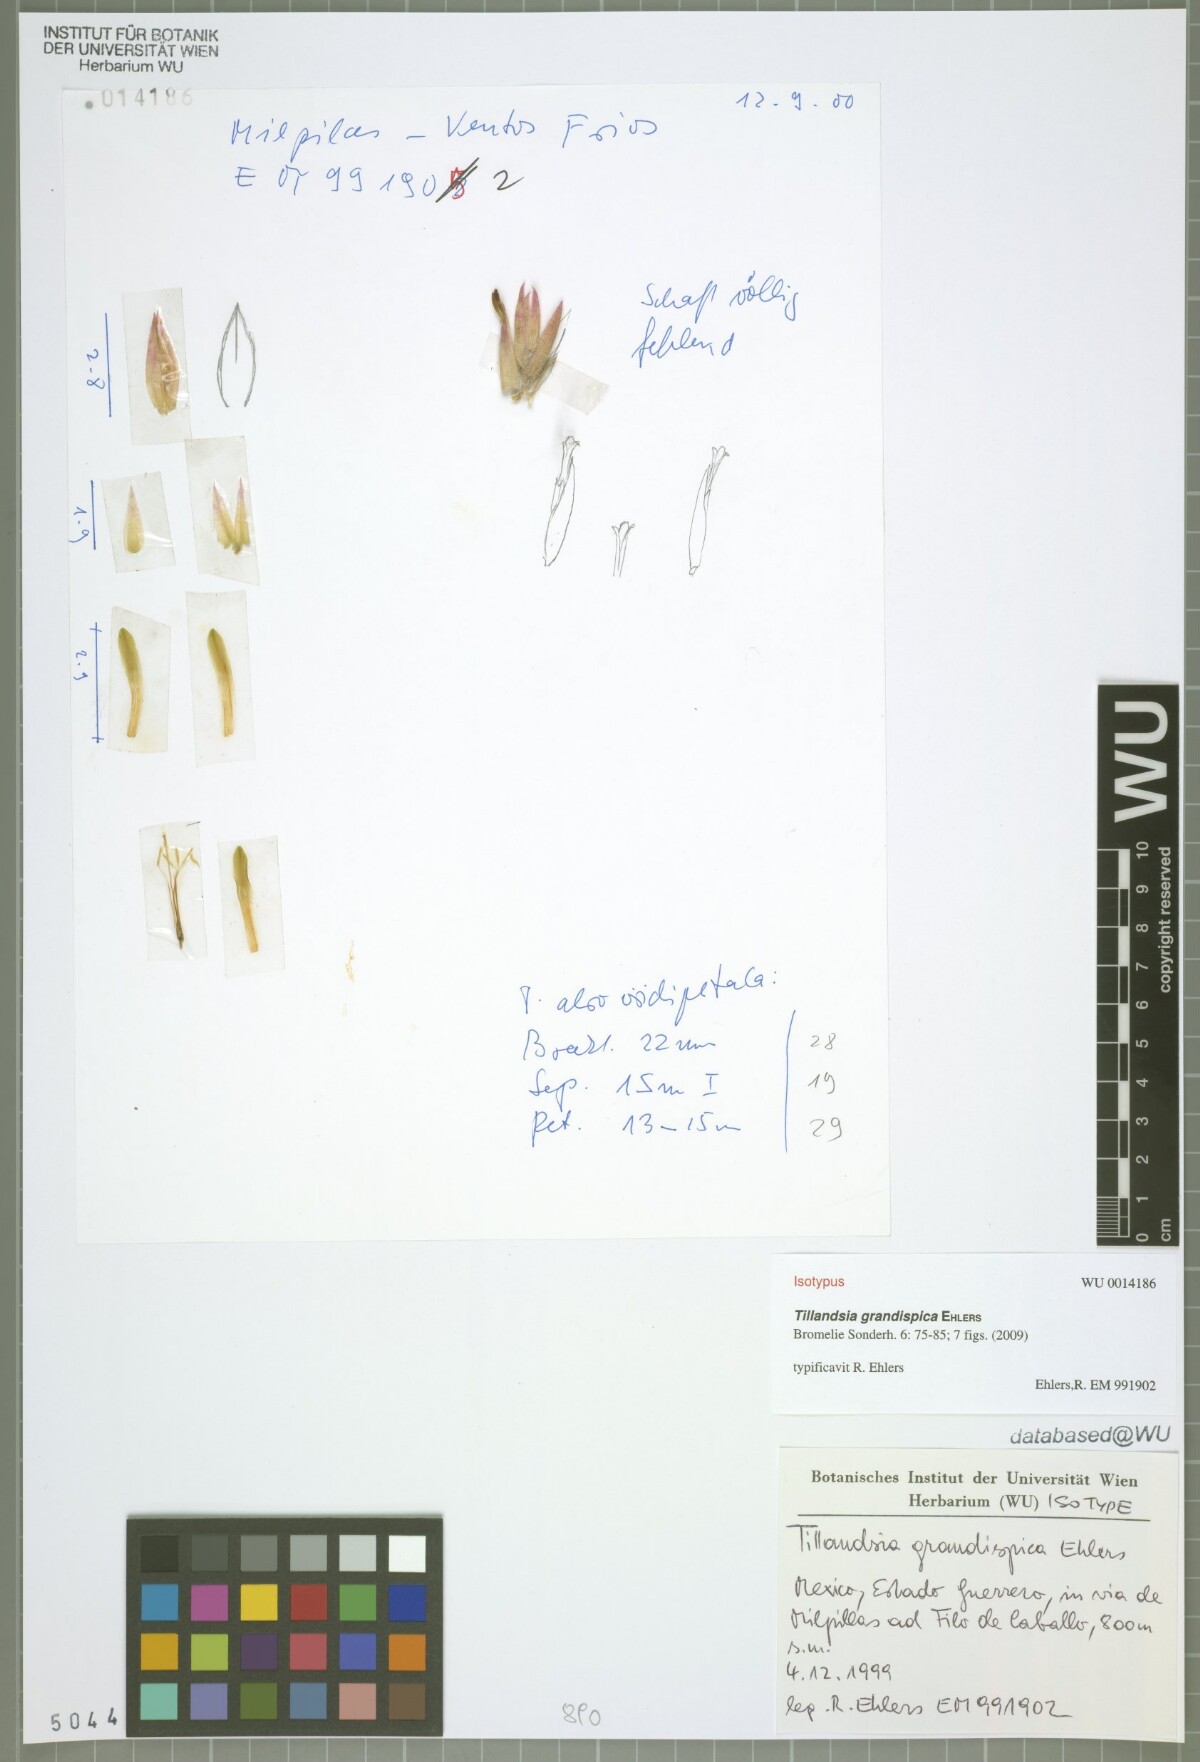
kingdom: Plantae
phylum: Tracheophyta
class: Liliopsida
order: Poales
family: Bromeliaceae
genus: Tillandsia
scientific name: Tillandsia grandispica
